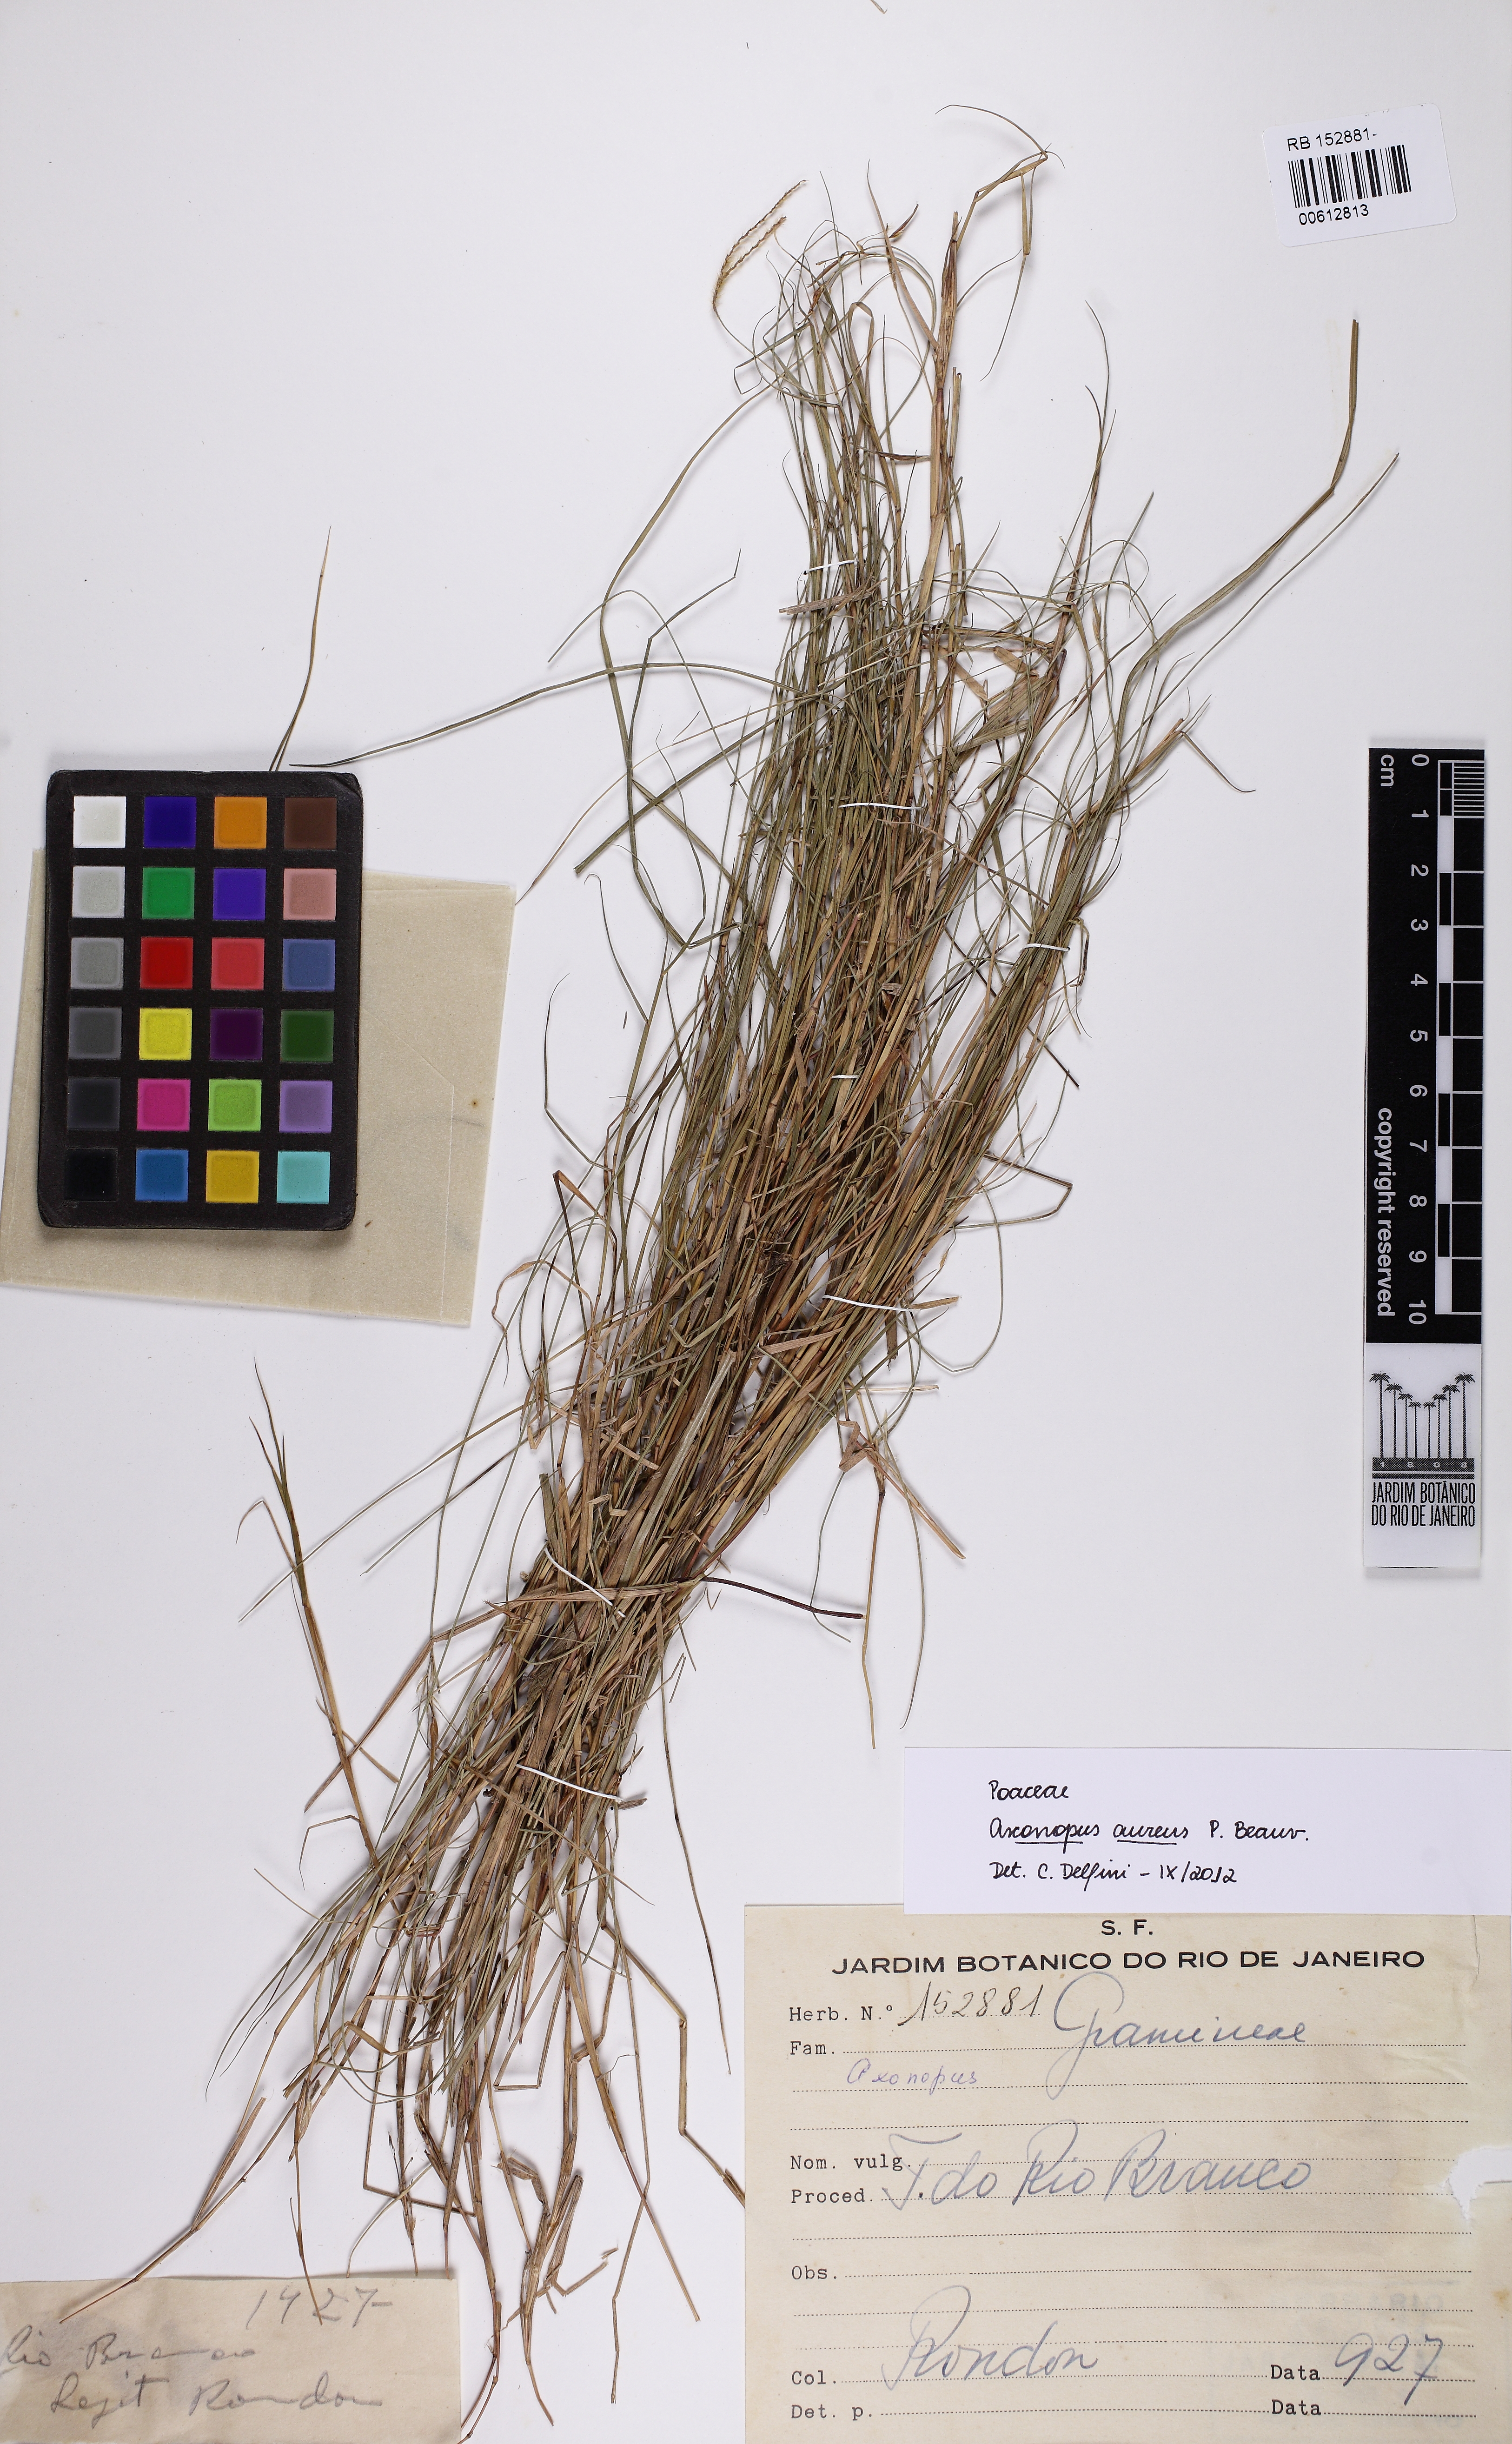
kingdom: Plantae
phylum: Tracheophyta
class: Liliopsida
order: Poales
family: Poaceae
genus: Axonopus
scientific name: Axonopus aureus
